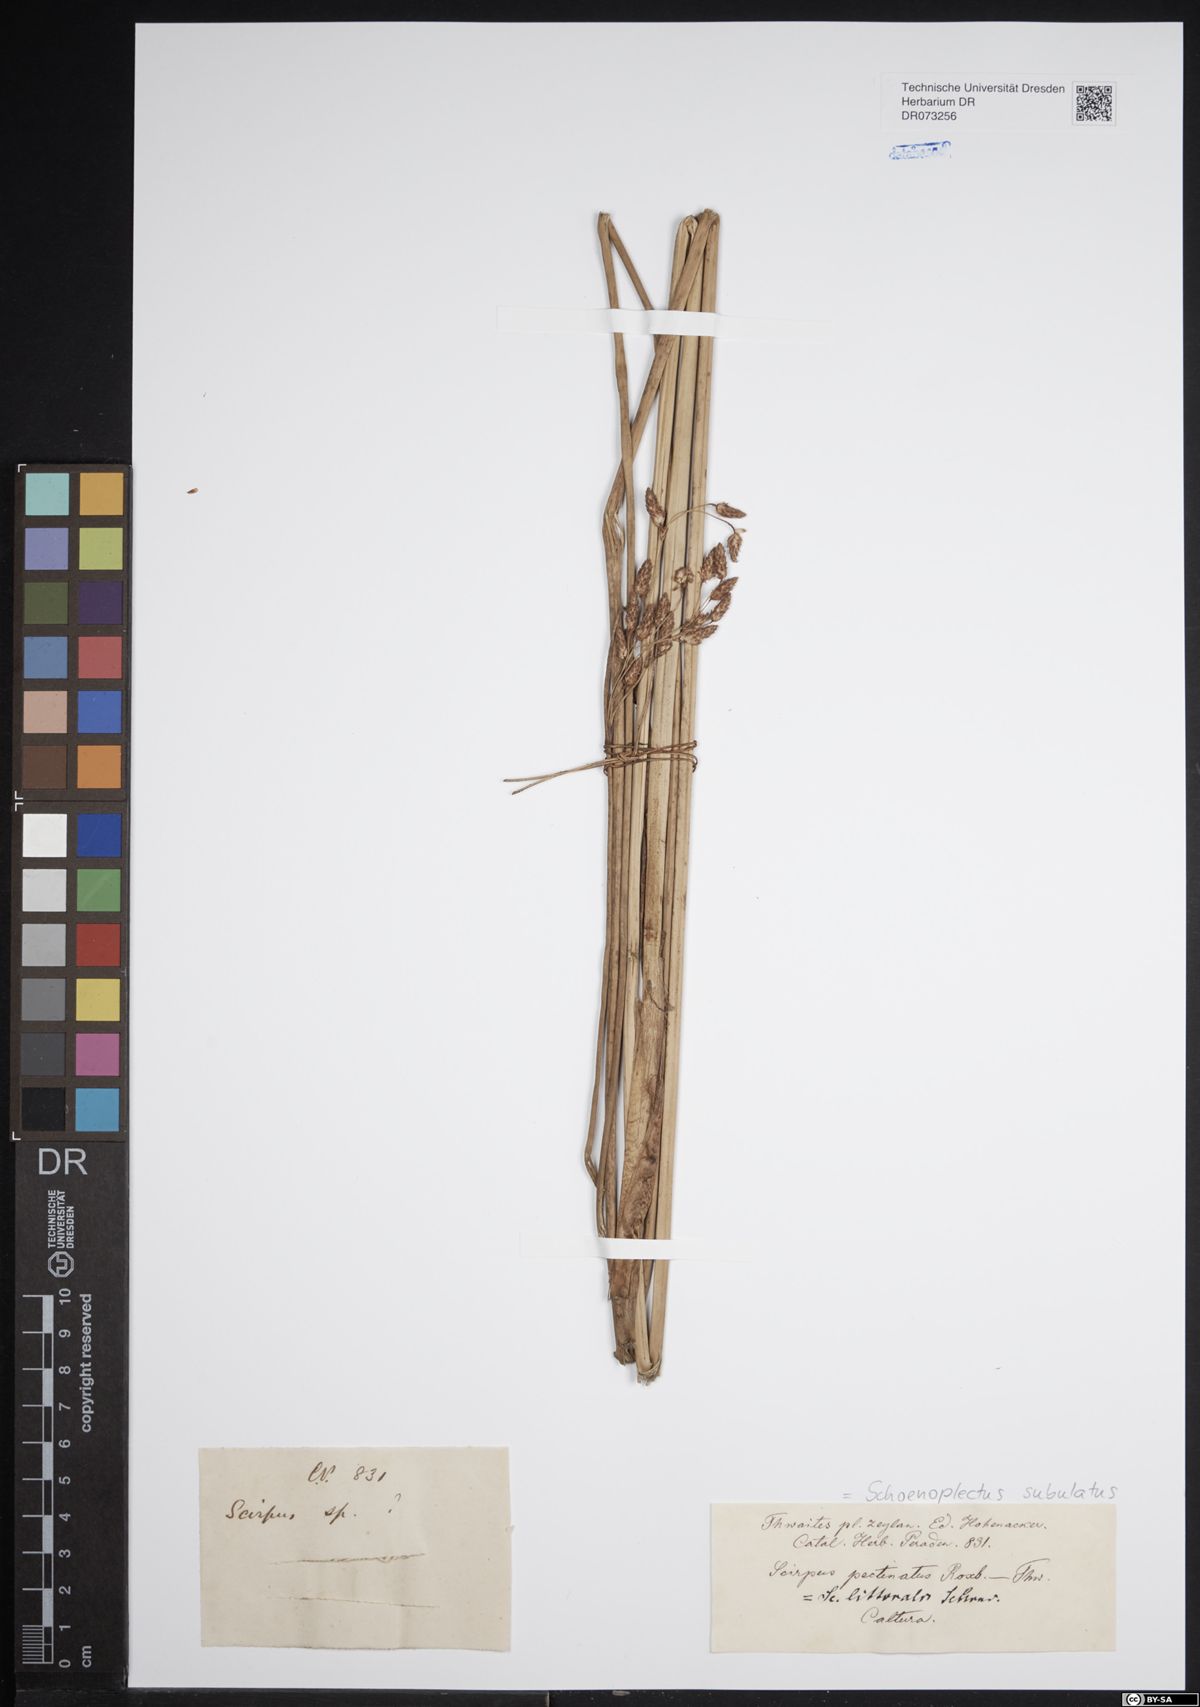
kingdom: Plantae
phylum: Tracheophyta
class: Liliopsida
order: Poales
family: Cyperaceae
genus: Schoenoplectus
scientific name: Schoenoplectus subulatus
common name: Coast club-rush
